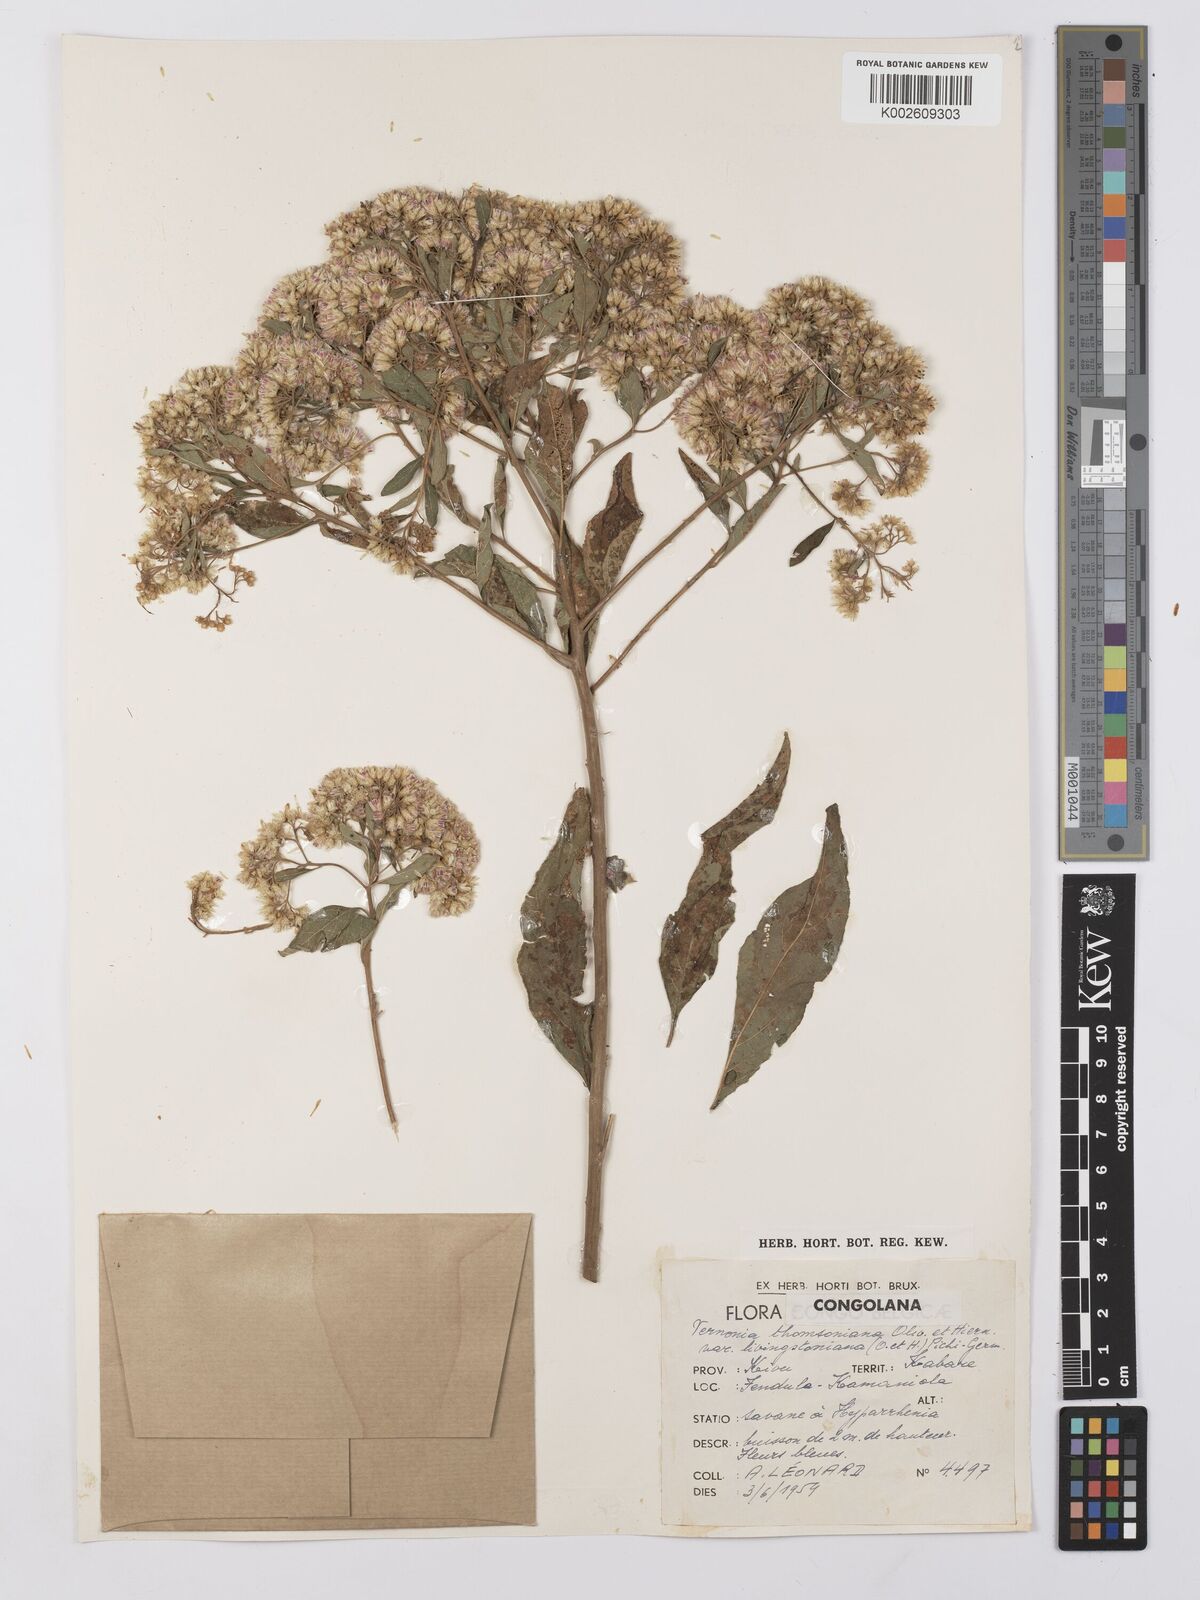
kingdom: Plantae
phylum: Tracheophyta
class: Magnoliopsida
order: Asterales
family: Asteraceae
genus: Gymnanthemum
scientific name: Gymnanthemum thomsonianum
